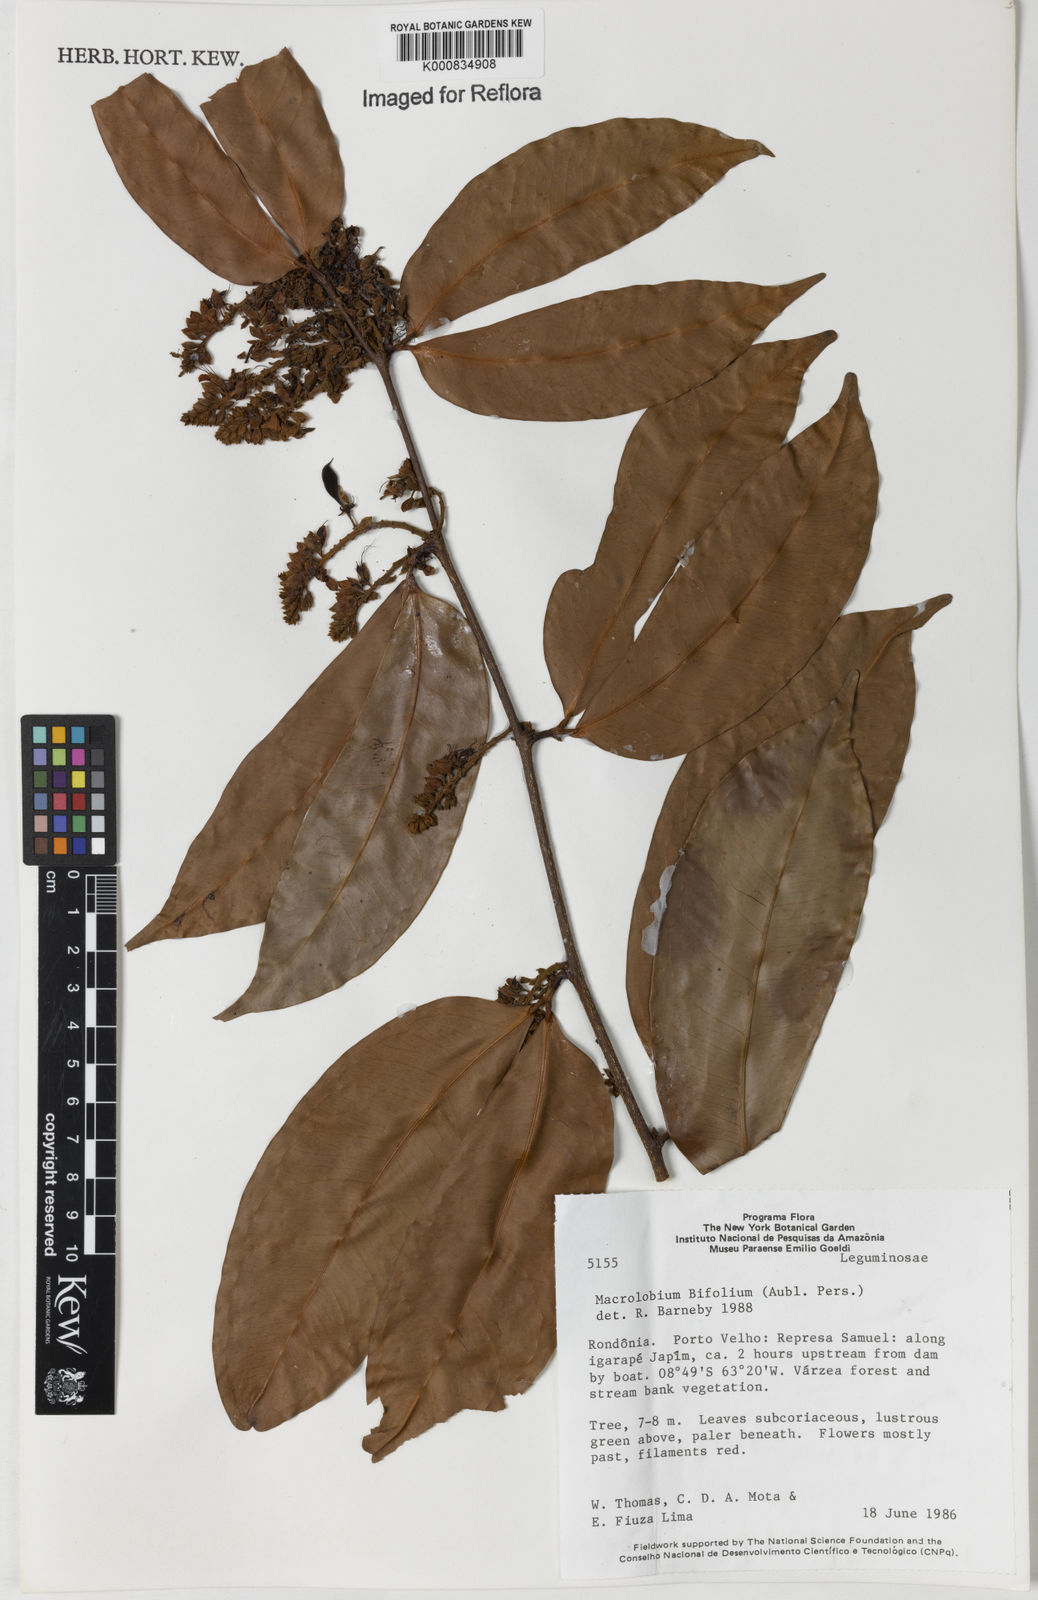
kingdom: Plantae
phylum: Tracheophyta
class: Magnoliopsida
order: Fabales
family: Fabaceae
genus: Macrolobium
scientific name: Macrolobium bifolium
